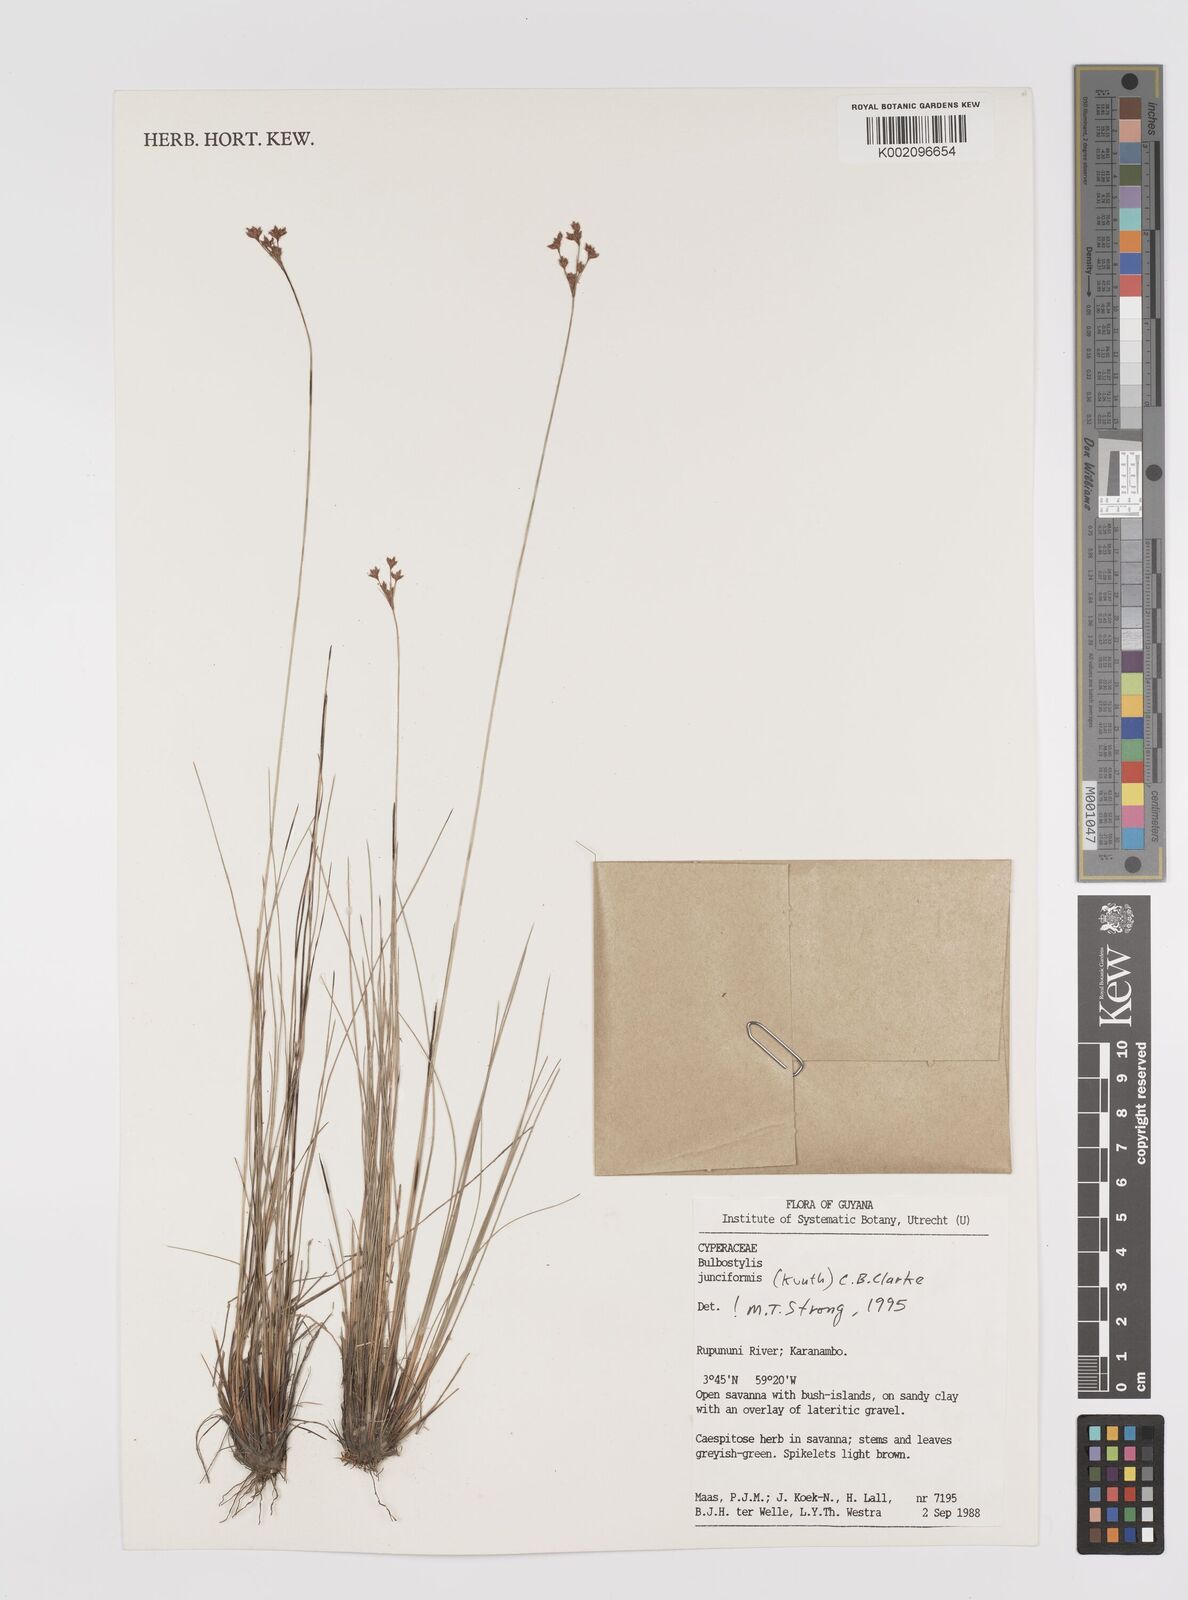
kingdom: Plantae
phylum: Tracheophyta
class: Liliopsida
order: Poales
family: Cyperaceae
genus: Bulbostylis
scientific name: Bulbostylis junciformis
